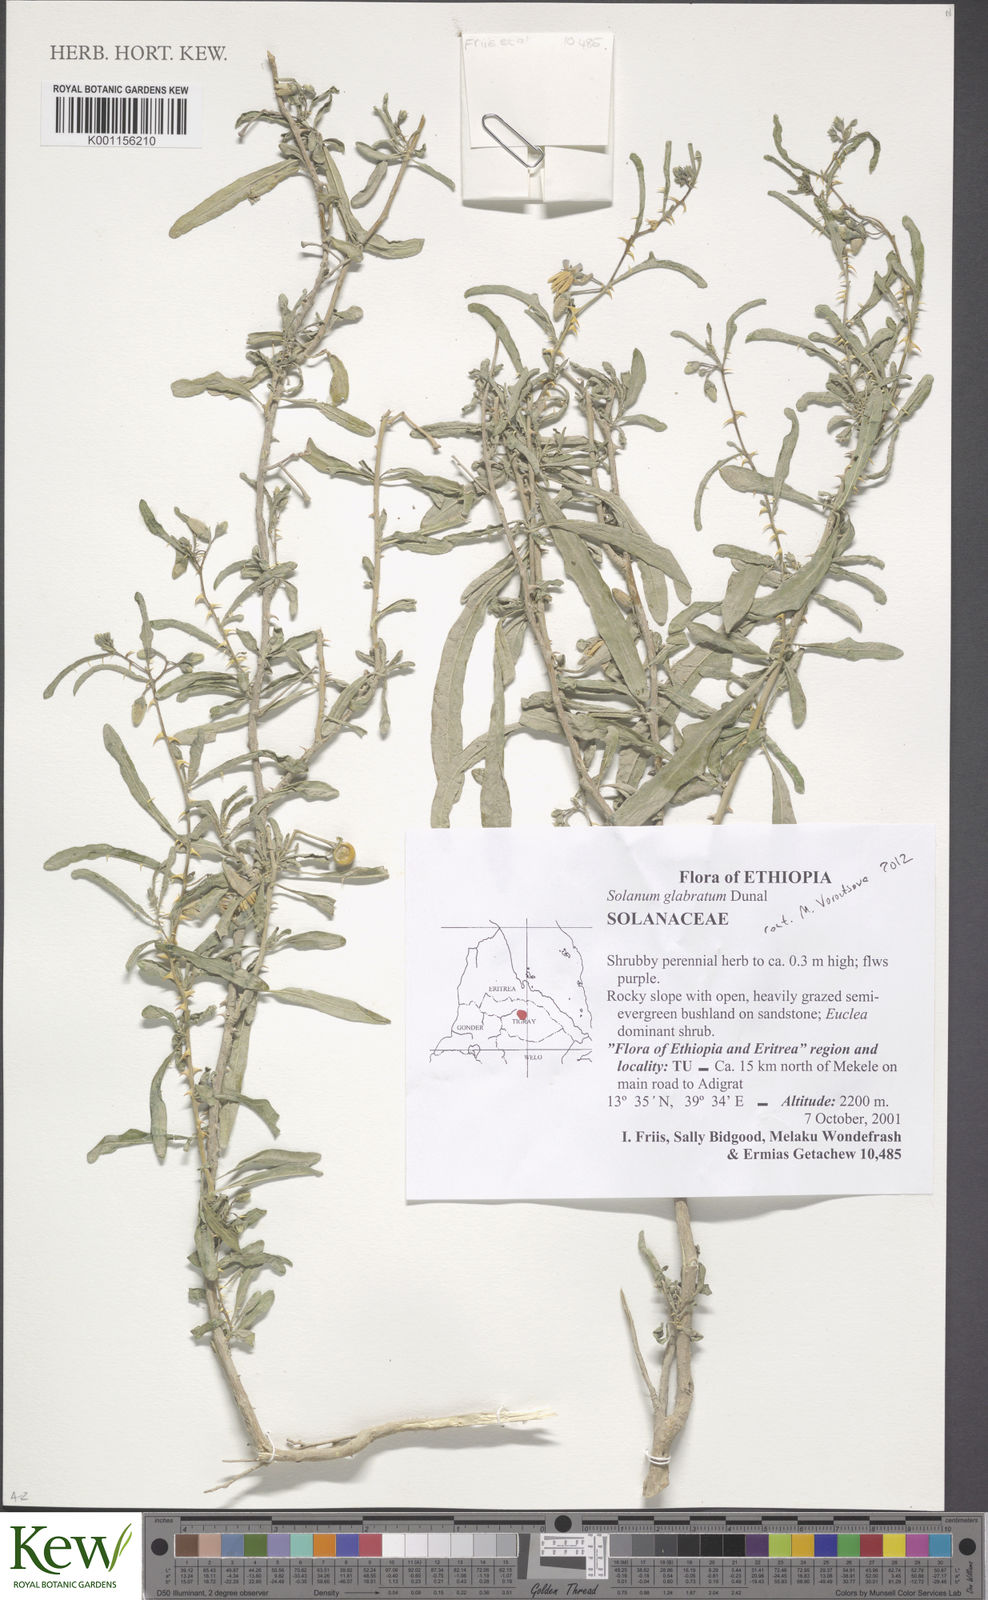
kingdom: Plantae
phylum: Tracheophyta
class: Magnoliopsida
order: Solanales
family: Solanaceae
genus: Solanum
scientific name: Solanum glabratum
